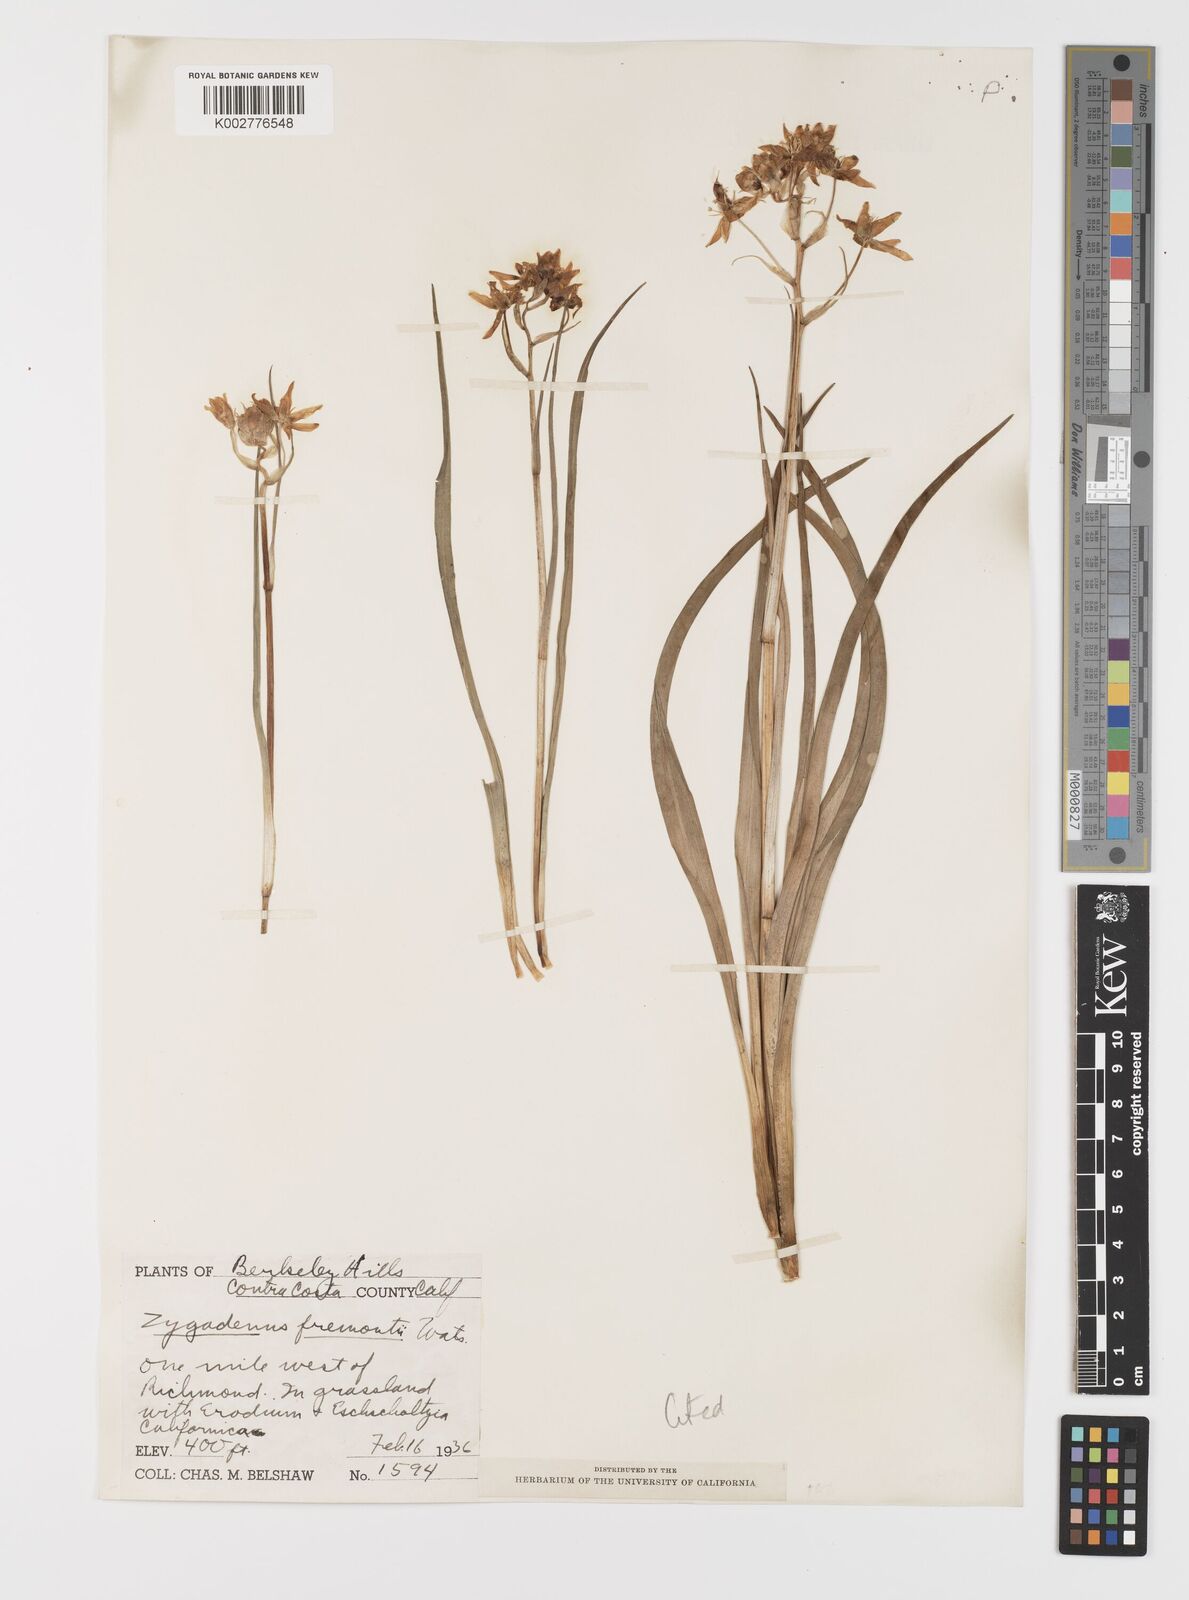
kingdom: Plantae
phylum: Tracheophyta
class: Liliopsida
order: Liliales
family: Melanthiaceae
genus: Toxicoscordion
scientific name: Toxicoscordion fremontii
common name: Fremont's death camas
